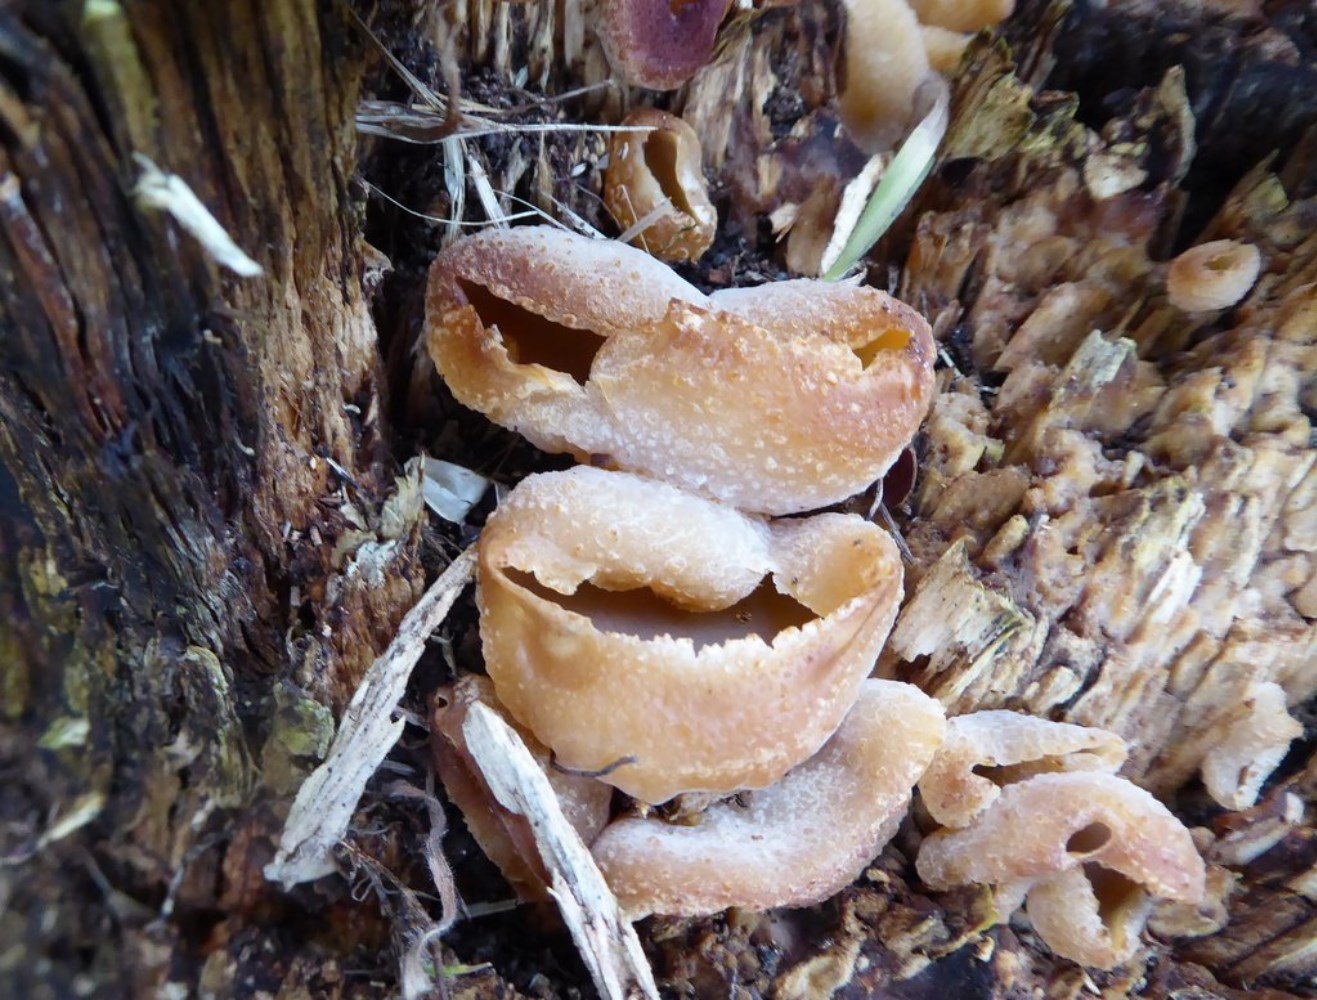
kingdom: Fungi
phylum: Ascomycota
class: Pezizomycetes
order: Pezizales
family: Pezizaceae
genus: Peziza
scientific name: Peziza varia
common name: Ved-bægersvamp
